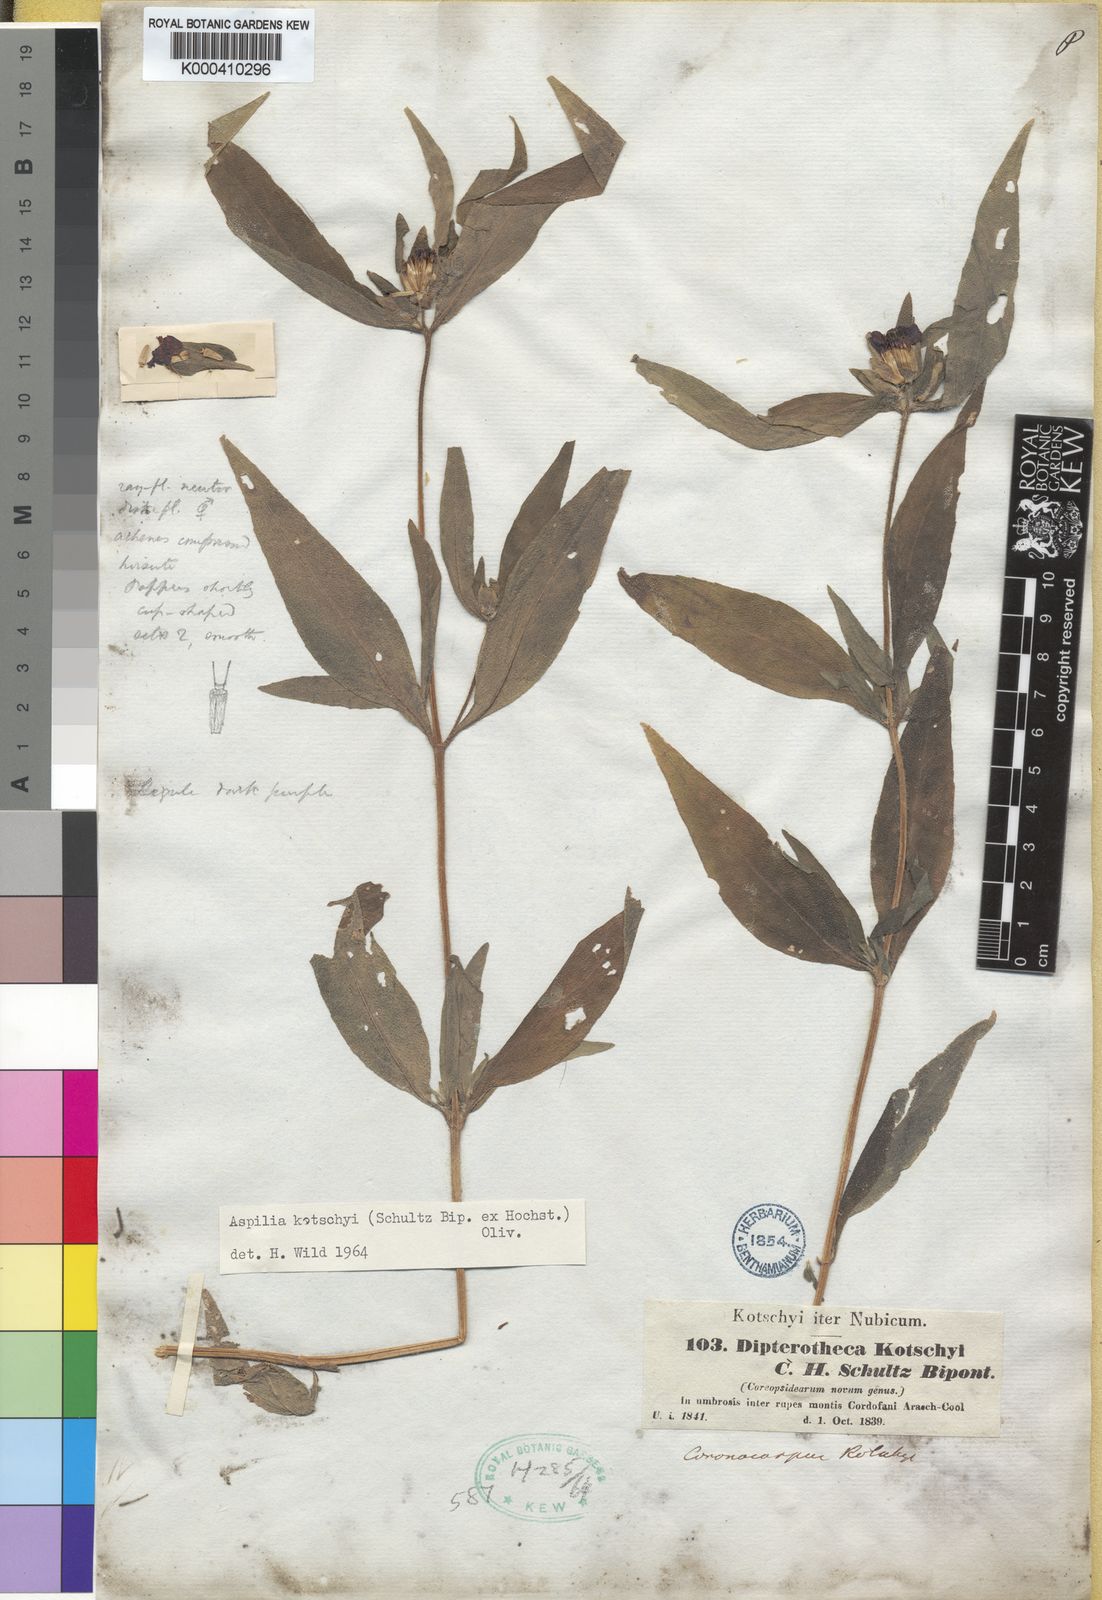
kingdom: Plantae
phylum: Tracheophyta
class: Magnoliopsida
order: Asterales
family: Asteraceae
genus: Aspilia
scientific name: Aspilia kotschyi
